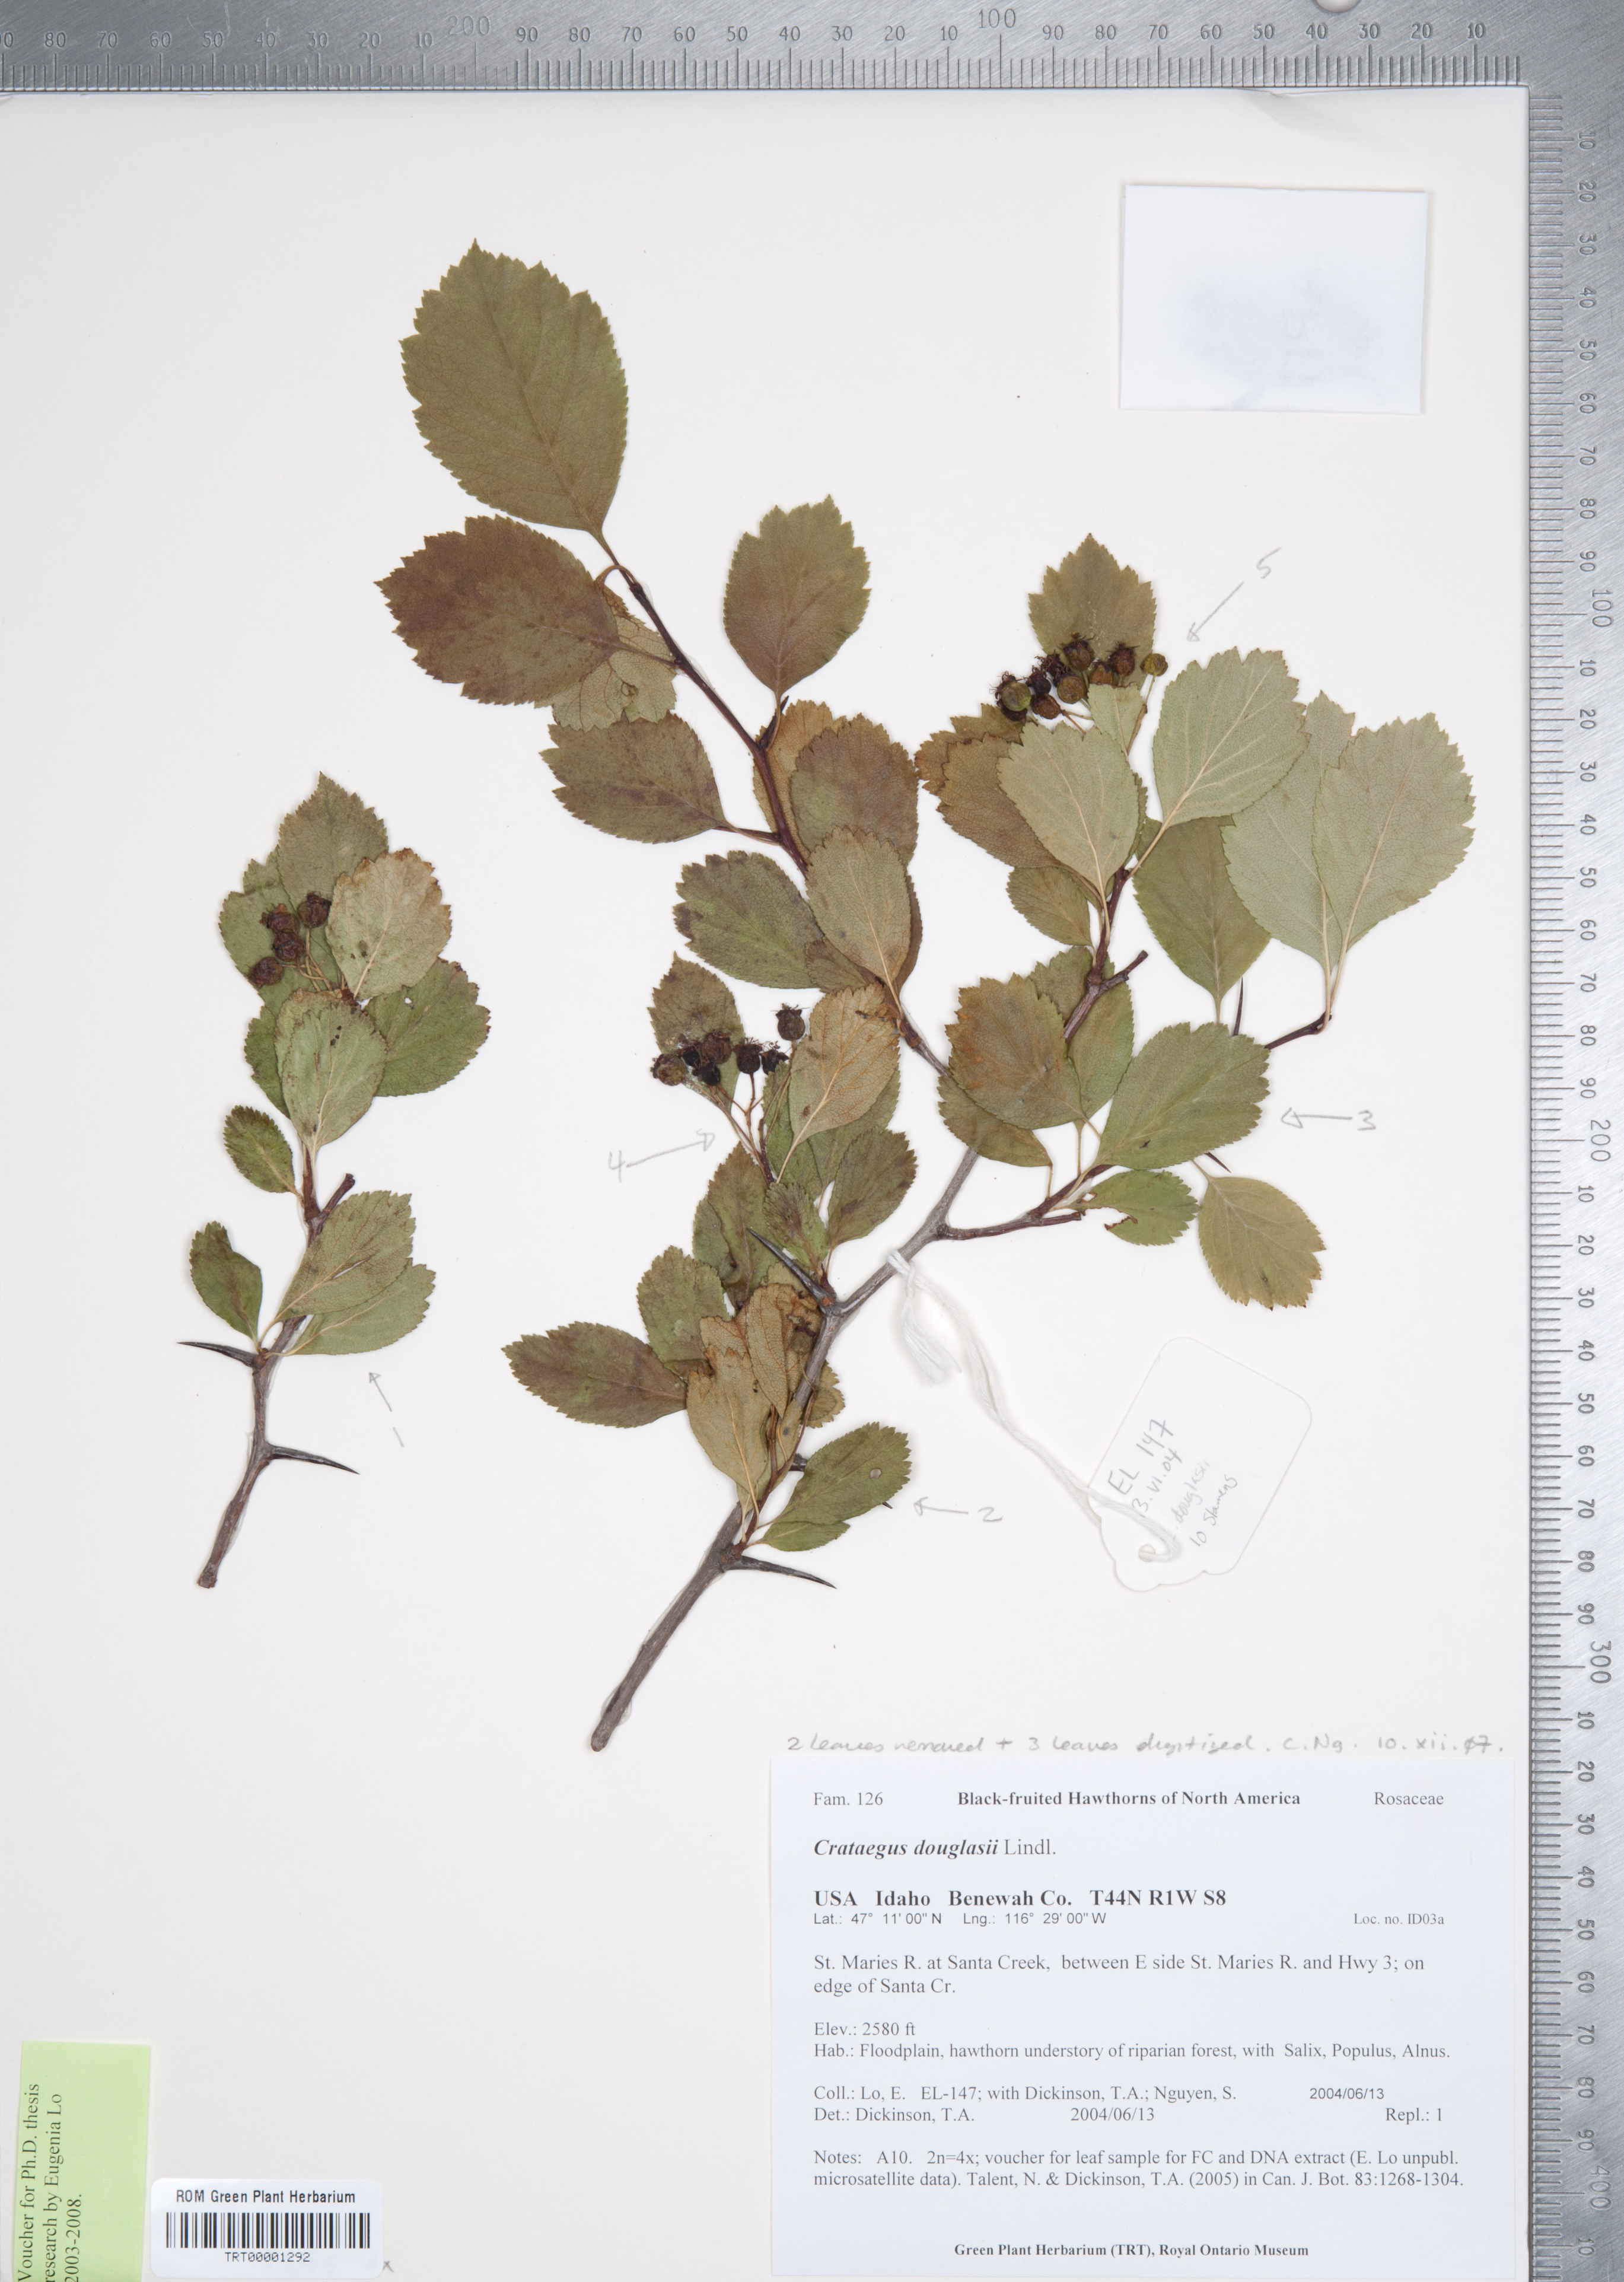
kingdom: Plantae
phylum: Tracheophyta
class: Magnoliopsida
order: Rosales
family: Rosaceae
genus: Crataegus
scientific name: Crataegus douglasii
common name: Black hawthorn
